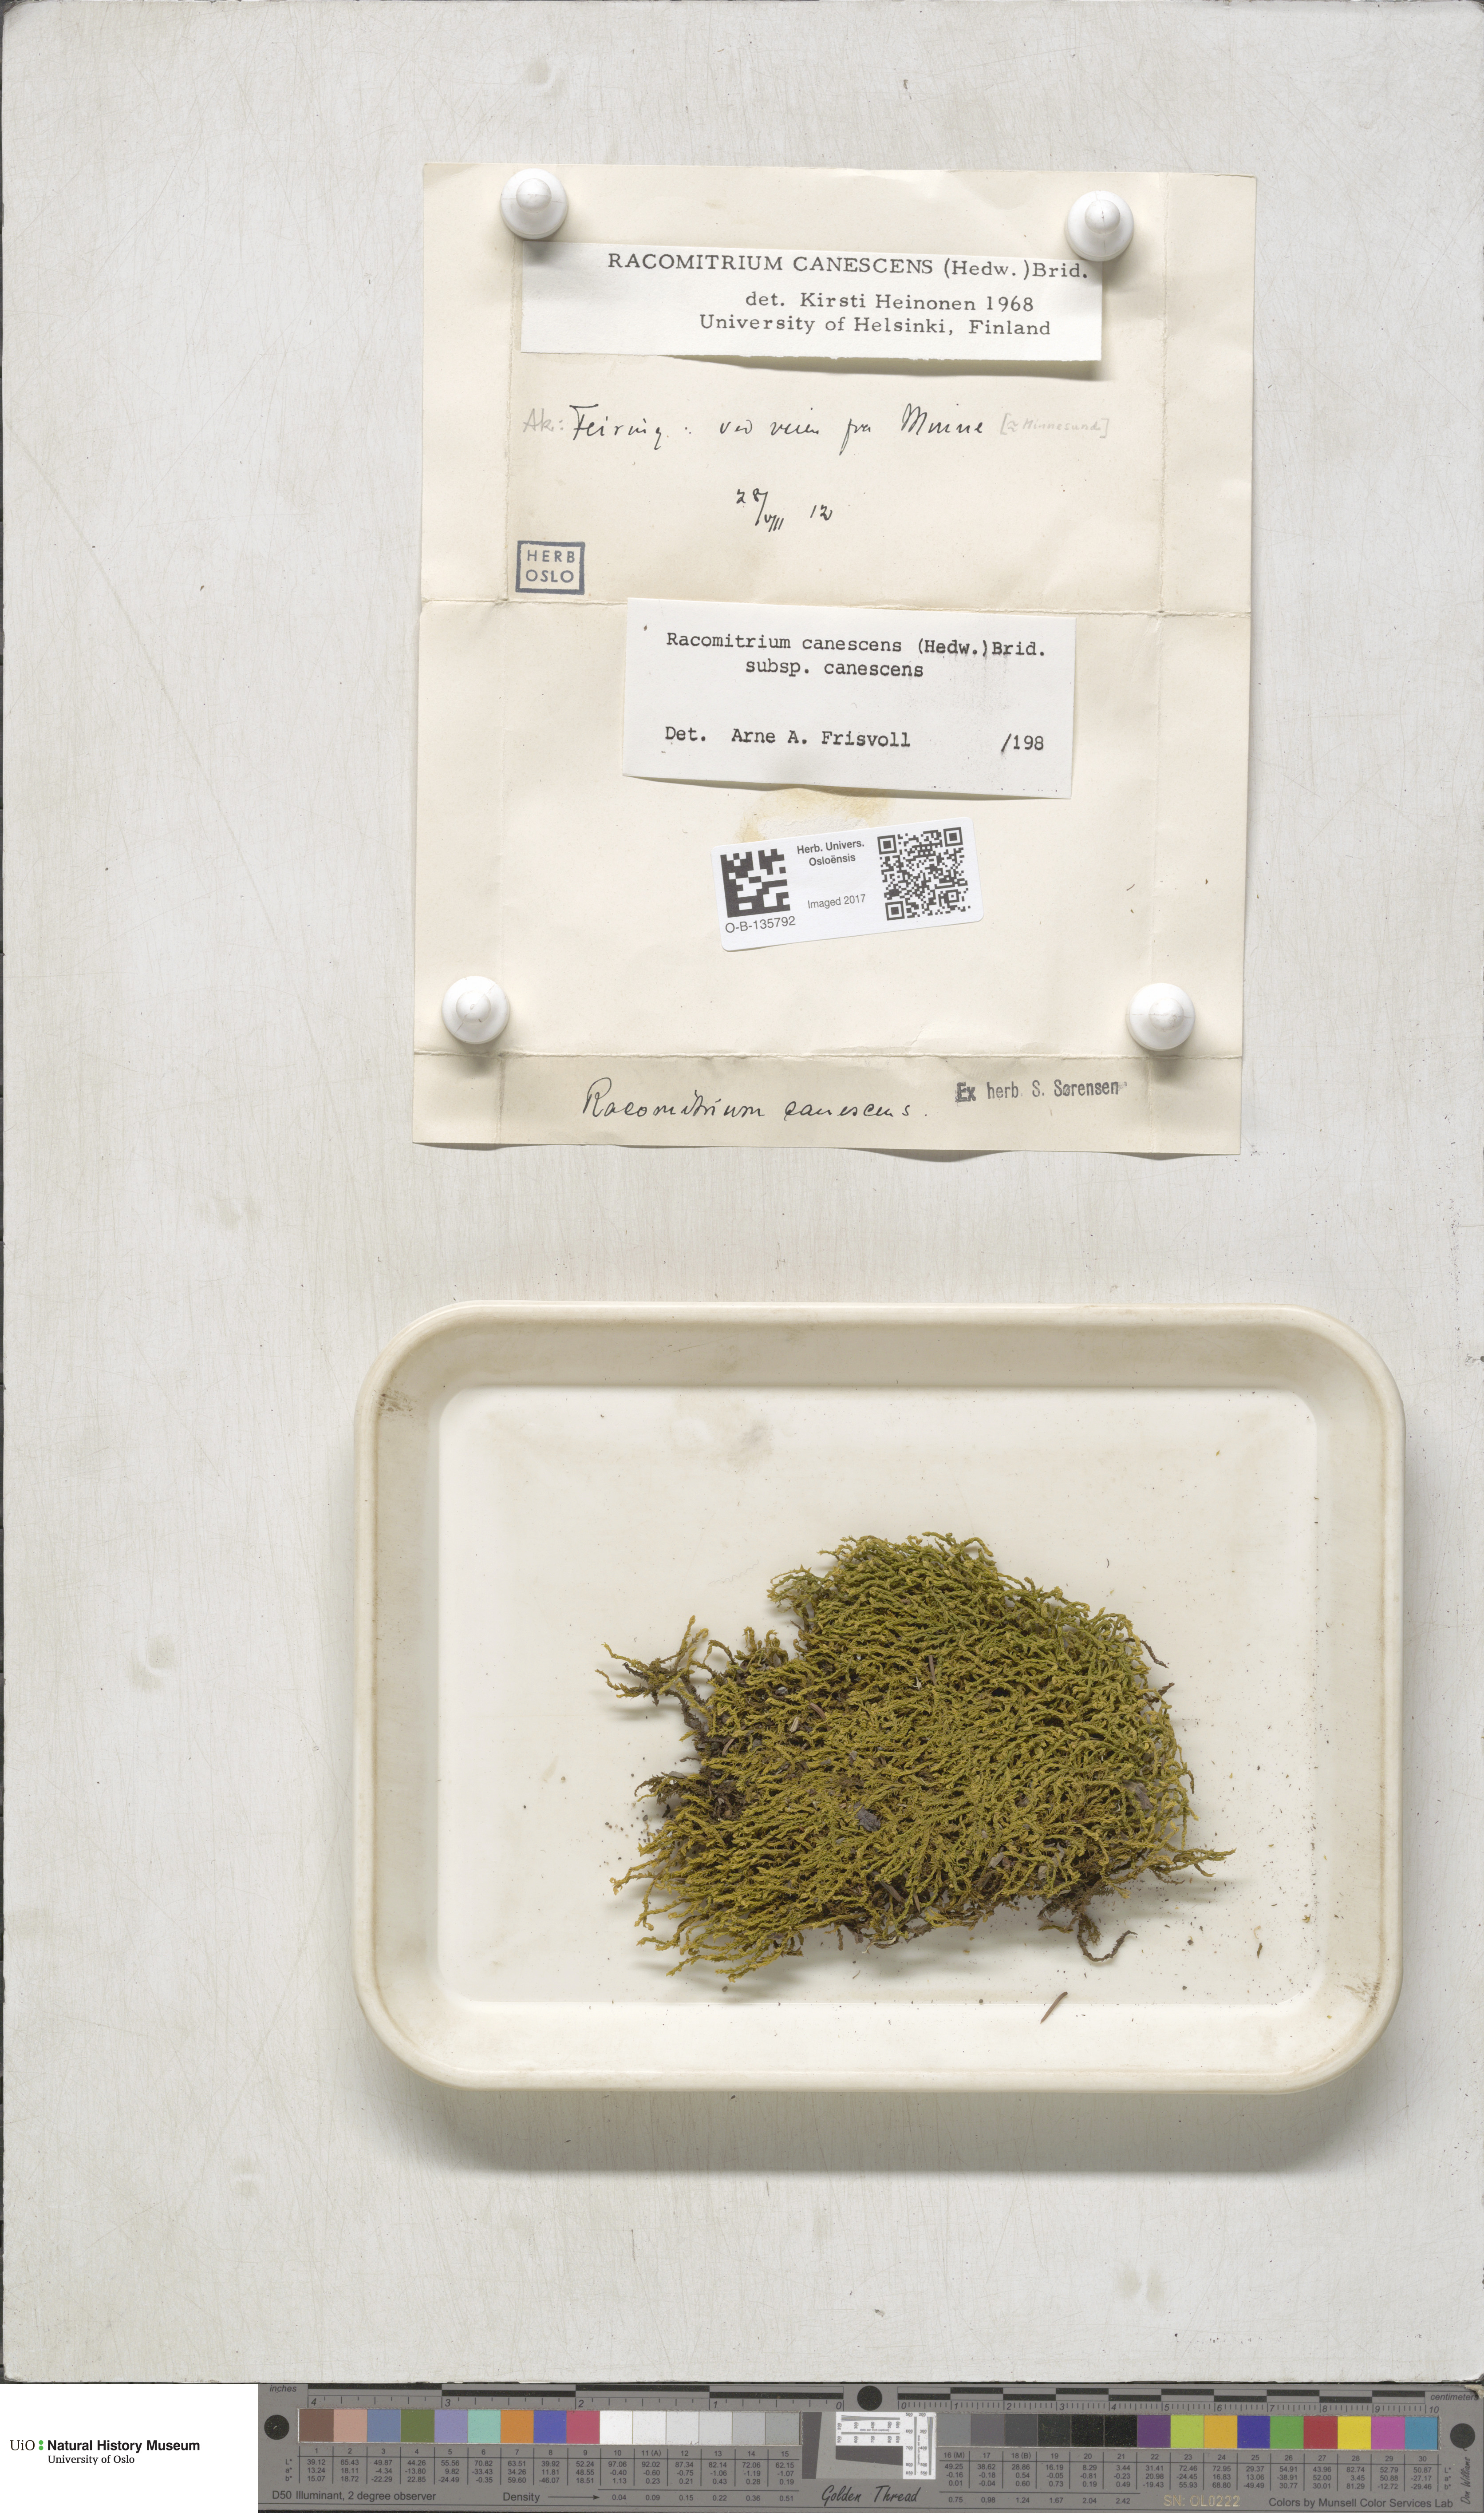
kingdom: Plantae
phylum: Bryophyta
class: Bryopsida
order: Grimmiales
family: Grimmiaceae
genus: Niphotrichum
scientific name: Niphotrichum canescens
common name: Hoary fringe-moss
